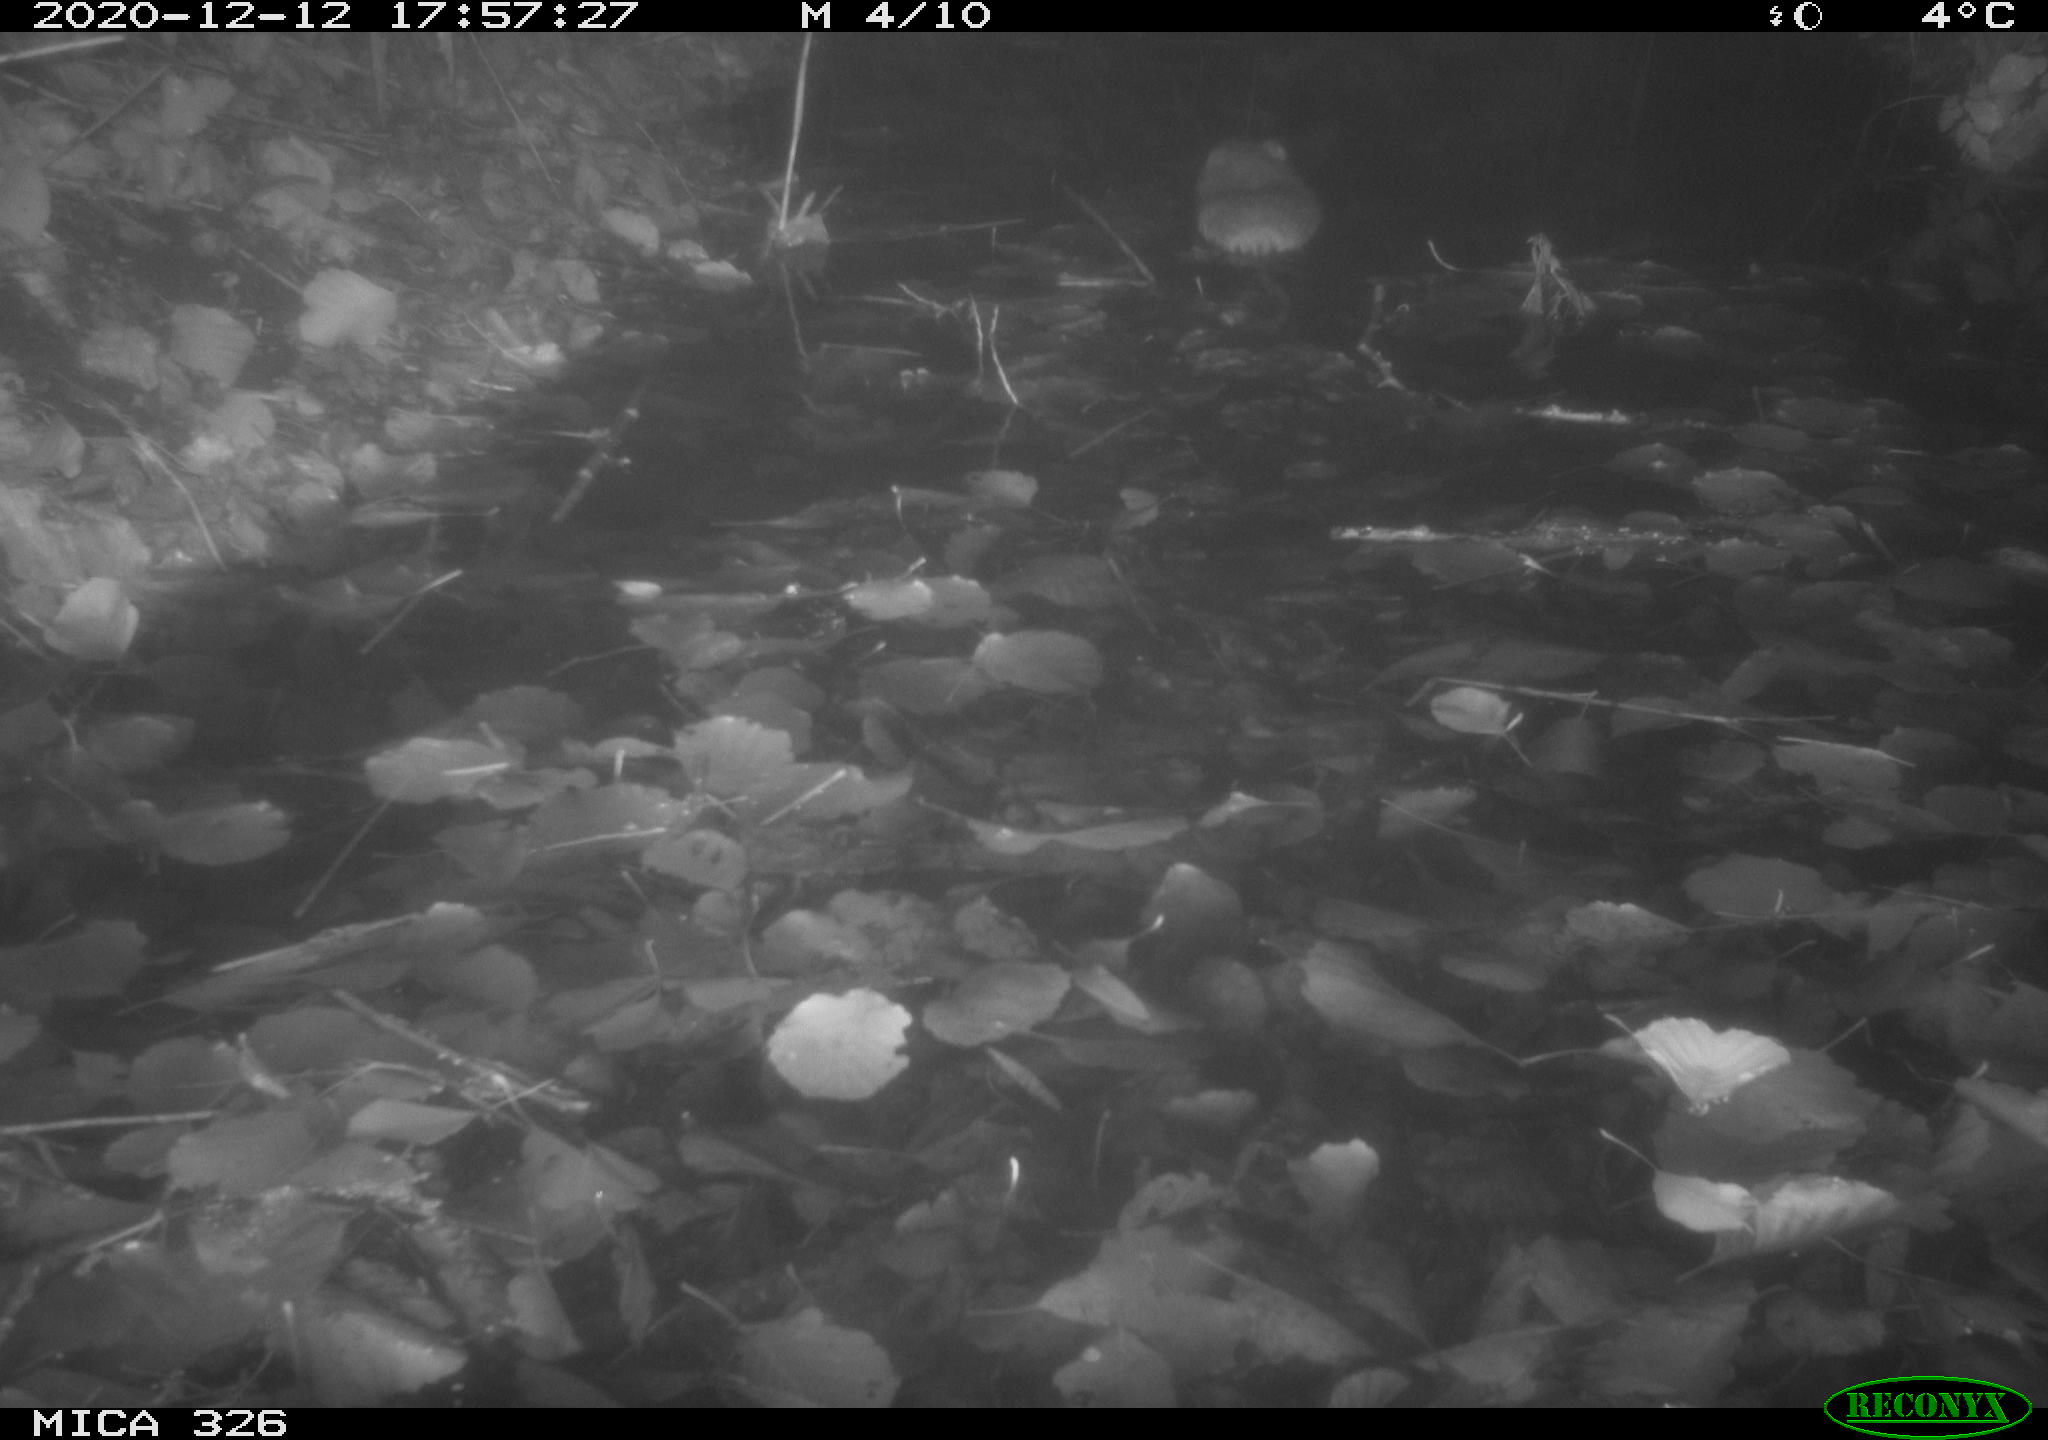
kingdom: Animalia
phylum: Chordata
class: Mammalia
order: Rodentia
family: Cricetidae
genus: Ondatra
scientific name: Ondatra zibethicus
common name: Muskrat
